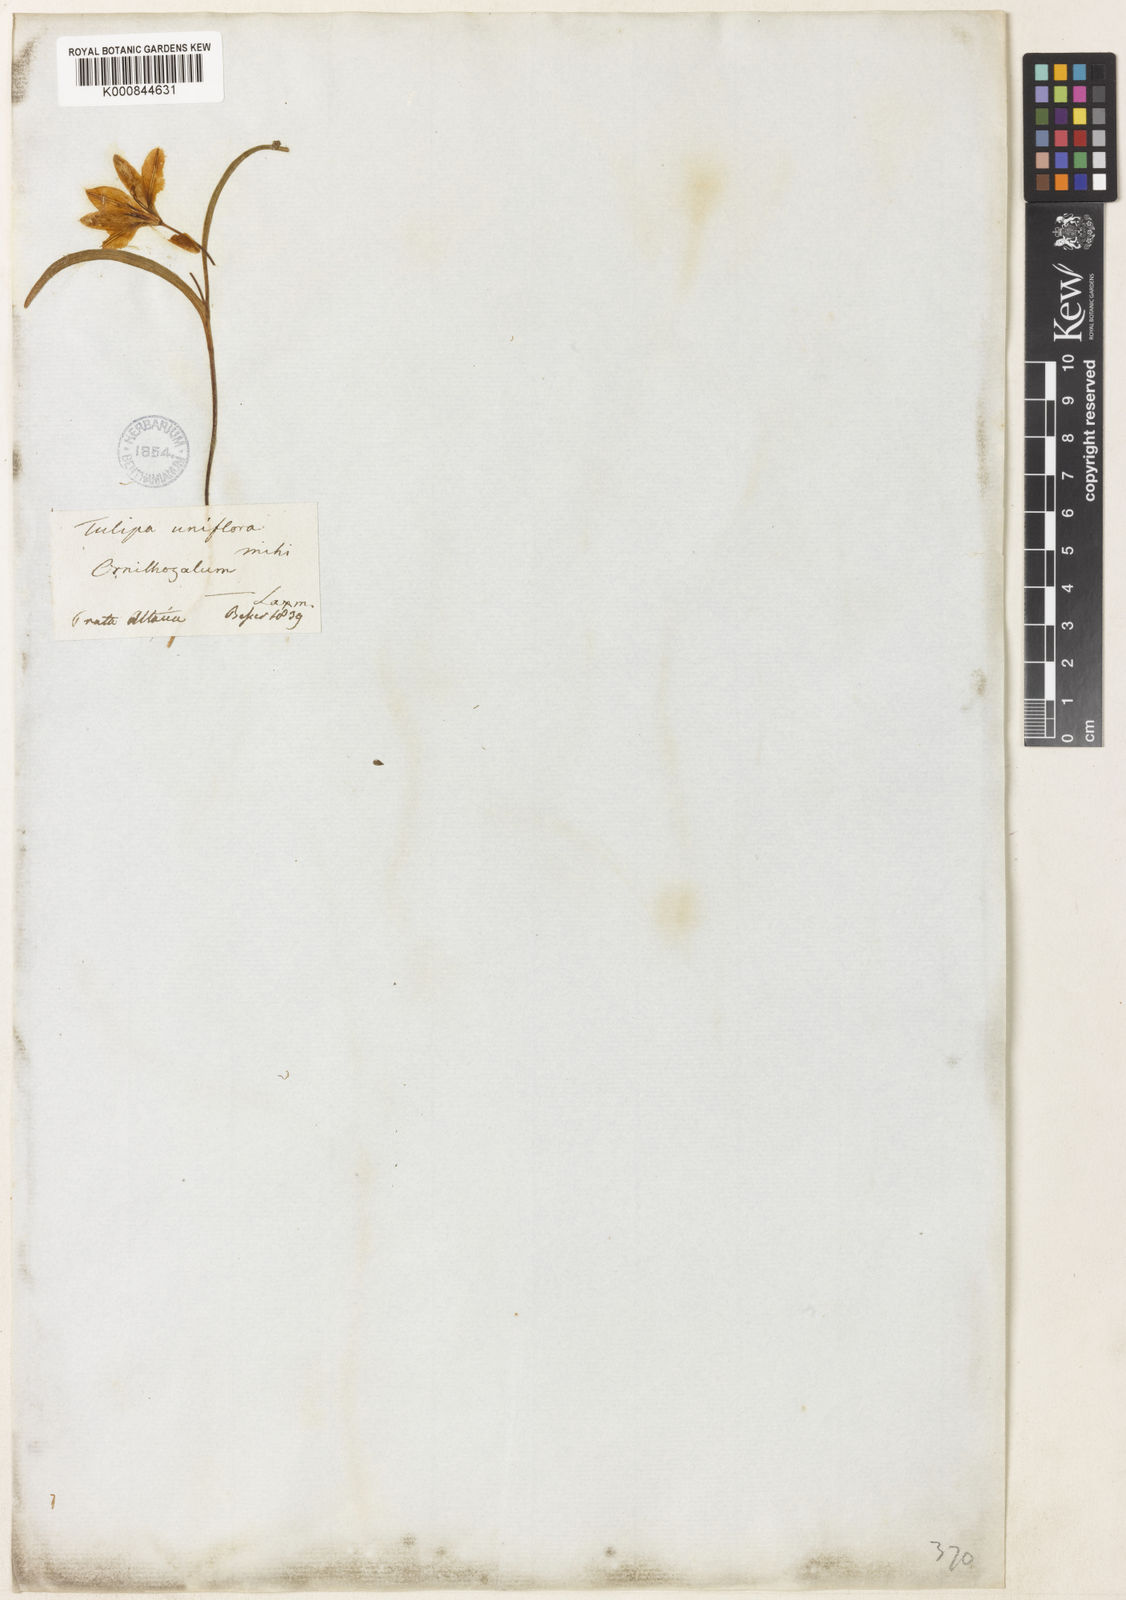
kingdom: Plantae
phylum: Tracheophyta
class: Liliopsida
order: Liliales
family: Liliaceae
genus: Tulipa
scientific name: Tulipa uniflora
